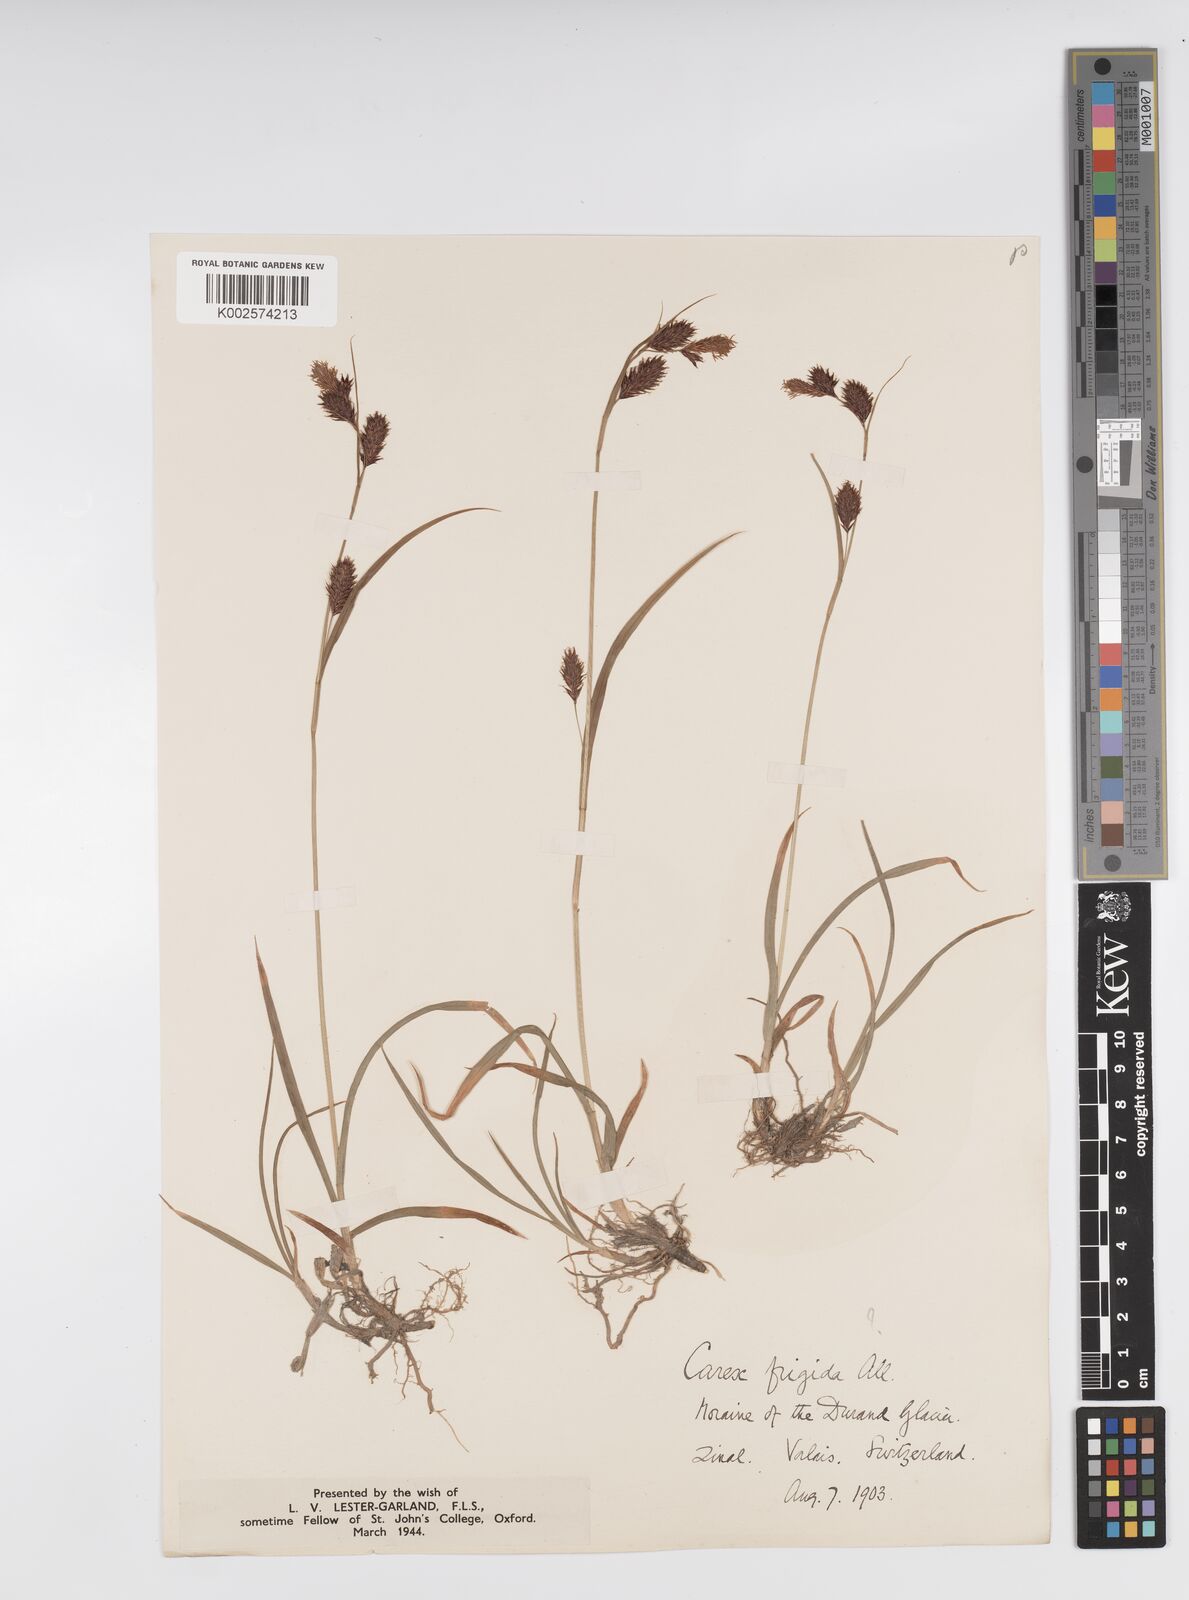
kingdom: Plantae
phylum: Tracheophyta
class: Liliopsida
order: Poales
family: Cyperaceae
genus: Carex
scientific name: Carex frigida
